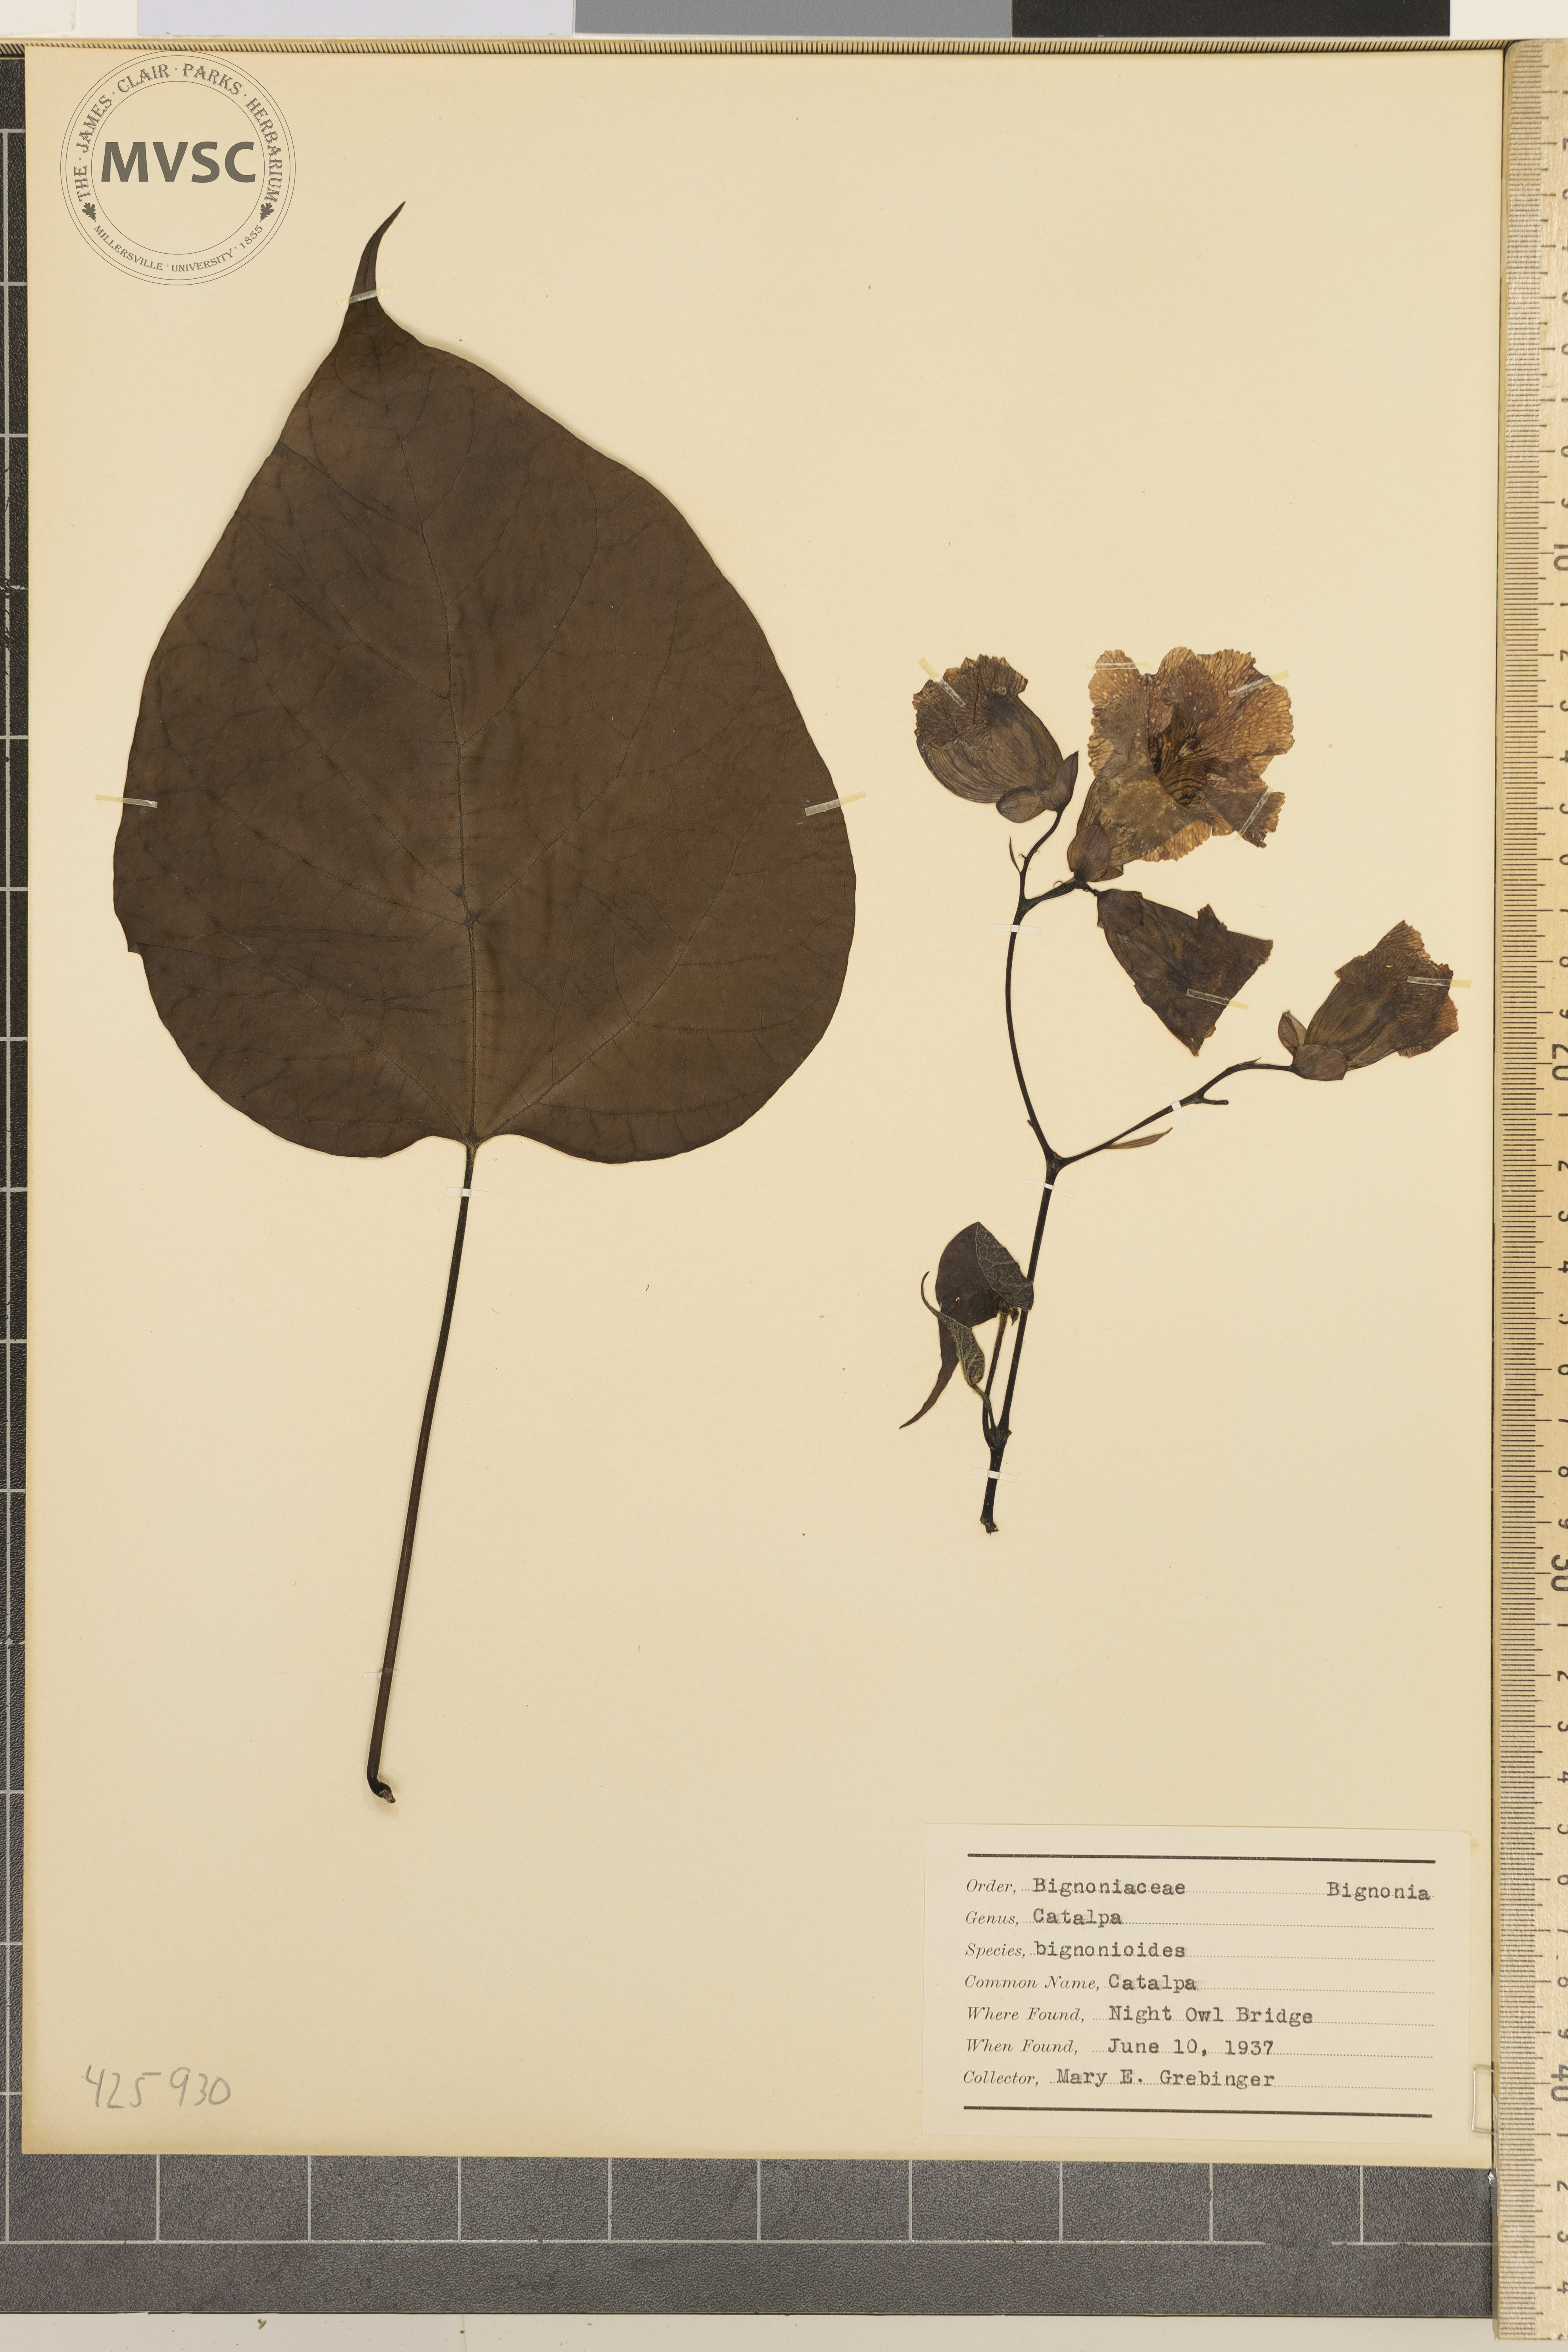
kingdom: Plantae
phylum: Tracheophyta
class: Magnoliopsida
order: Lamiales
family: Bignoniaceae
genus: Catalpa
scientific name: Catalpa bignonioides
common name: Catalpa
